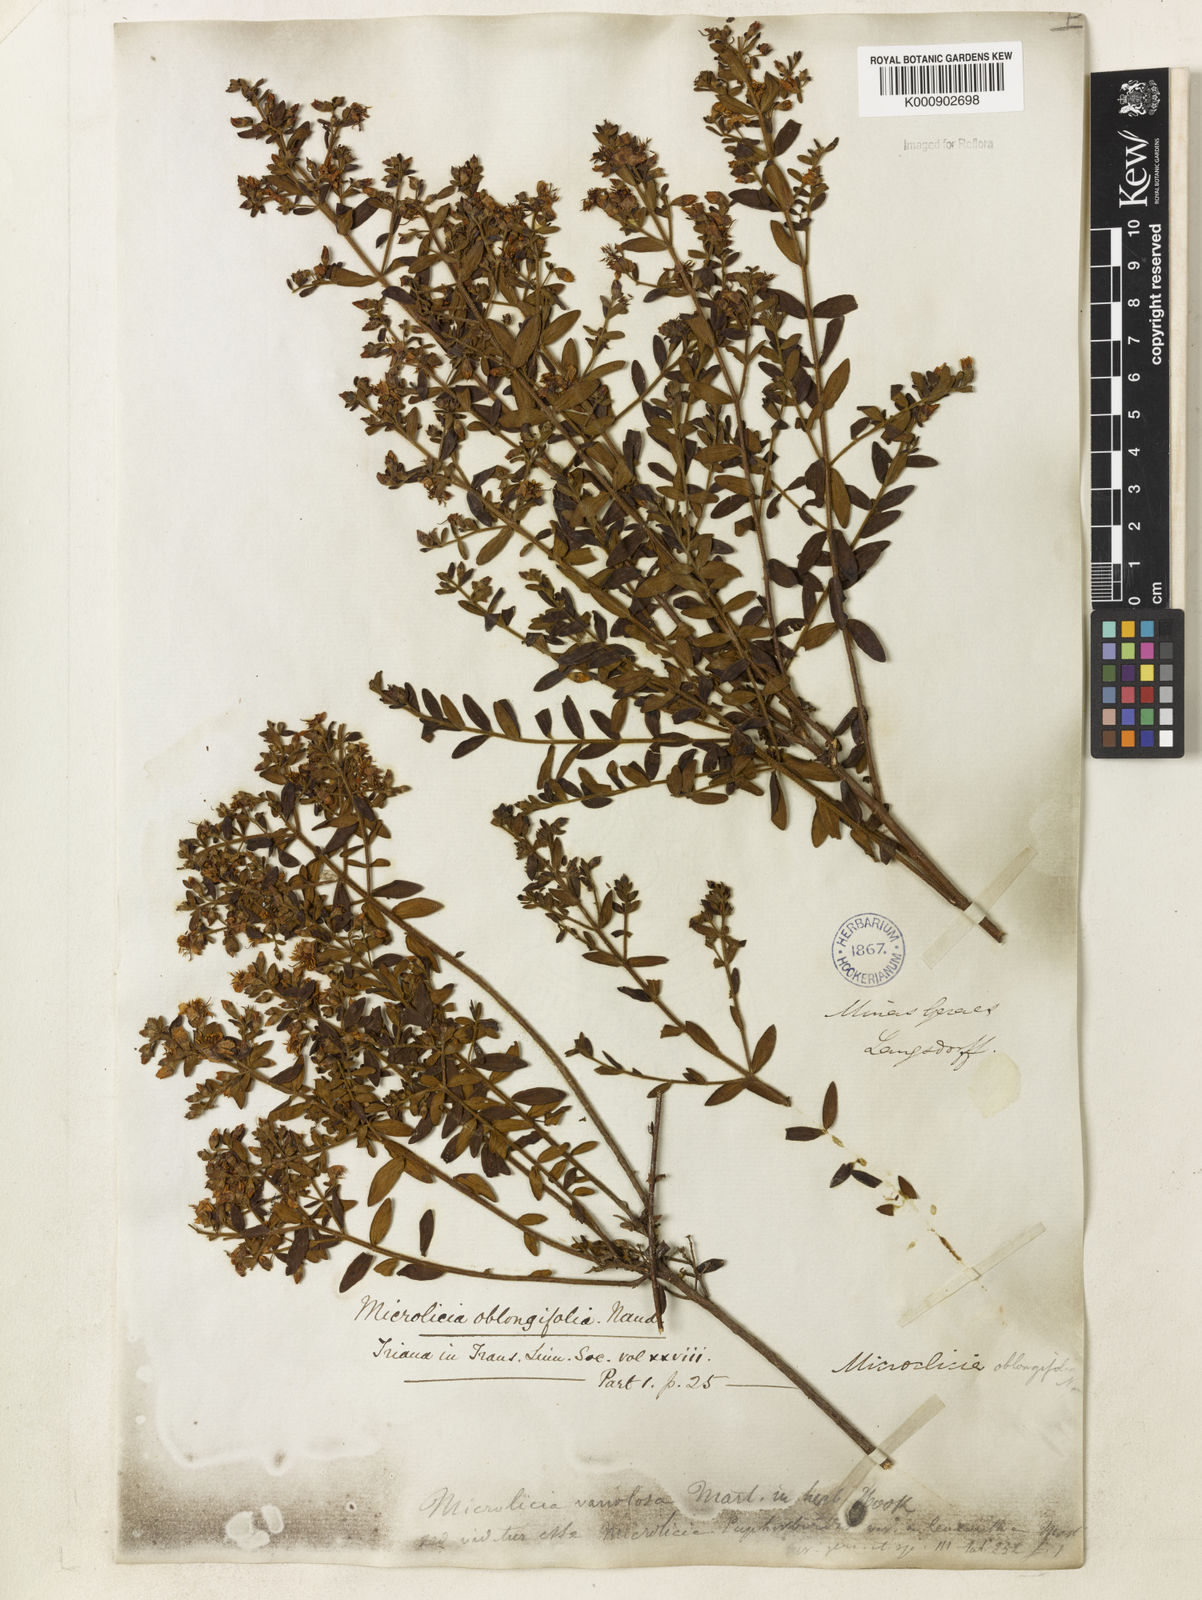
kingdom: Plantae
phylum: Tracheophyta
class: Magnoliopsida
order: Myrtales
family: Melastomataceae
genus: Microlicia
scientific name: Microlicia euphorbioides
